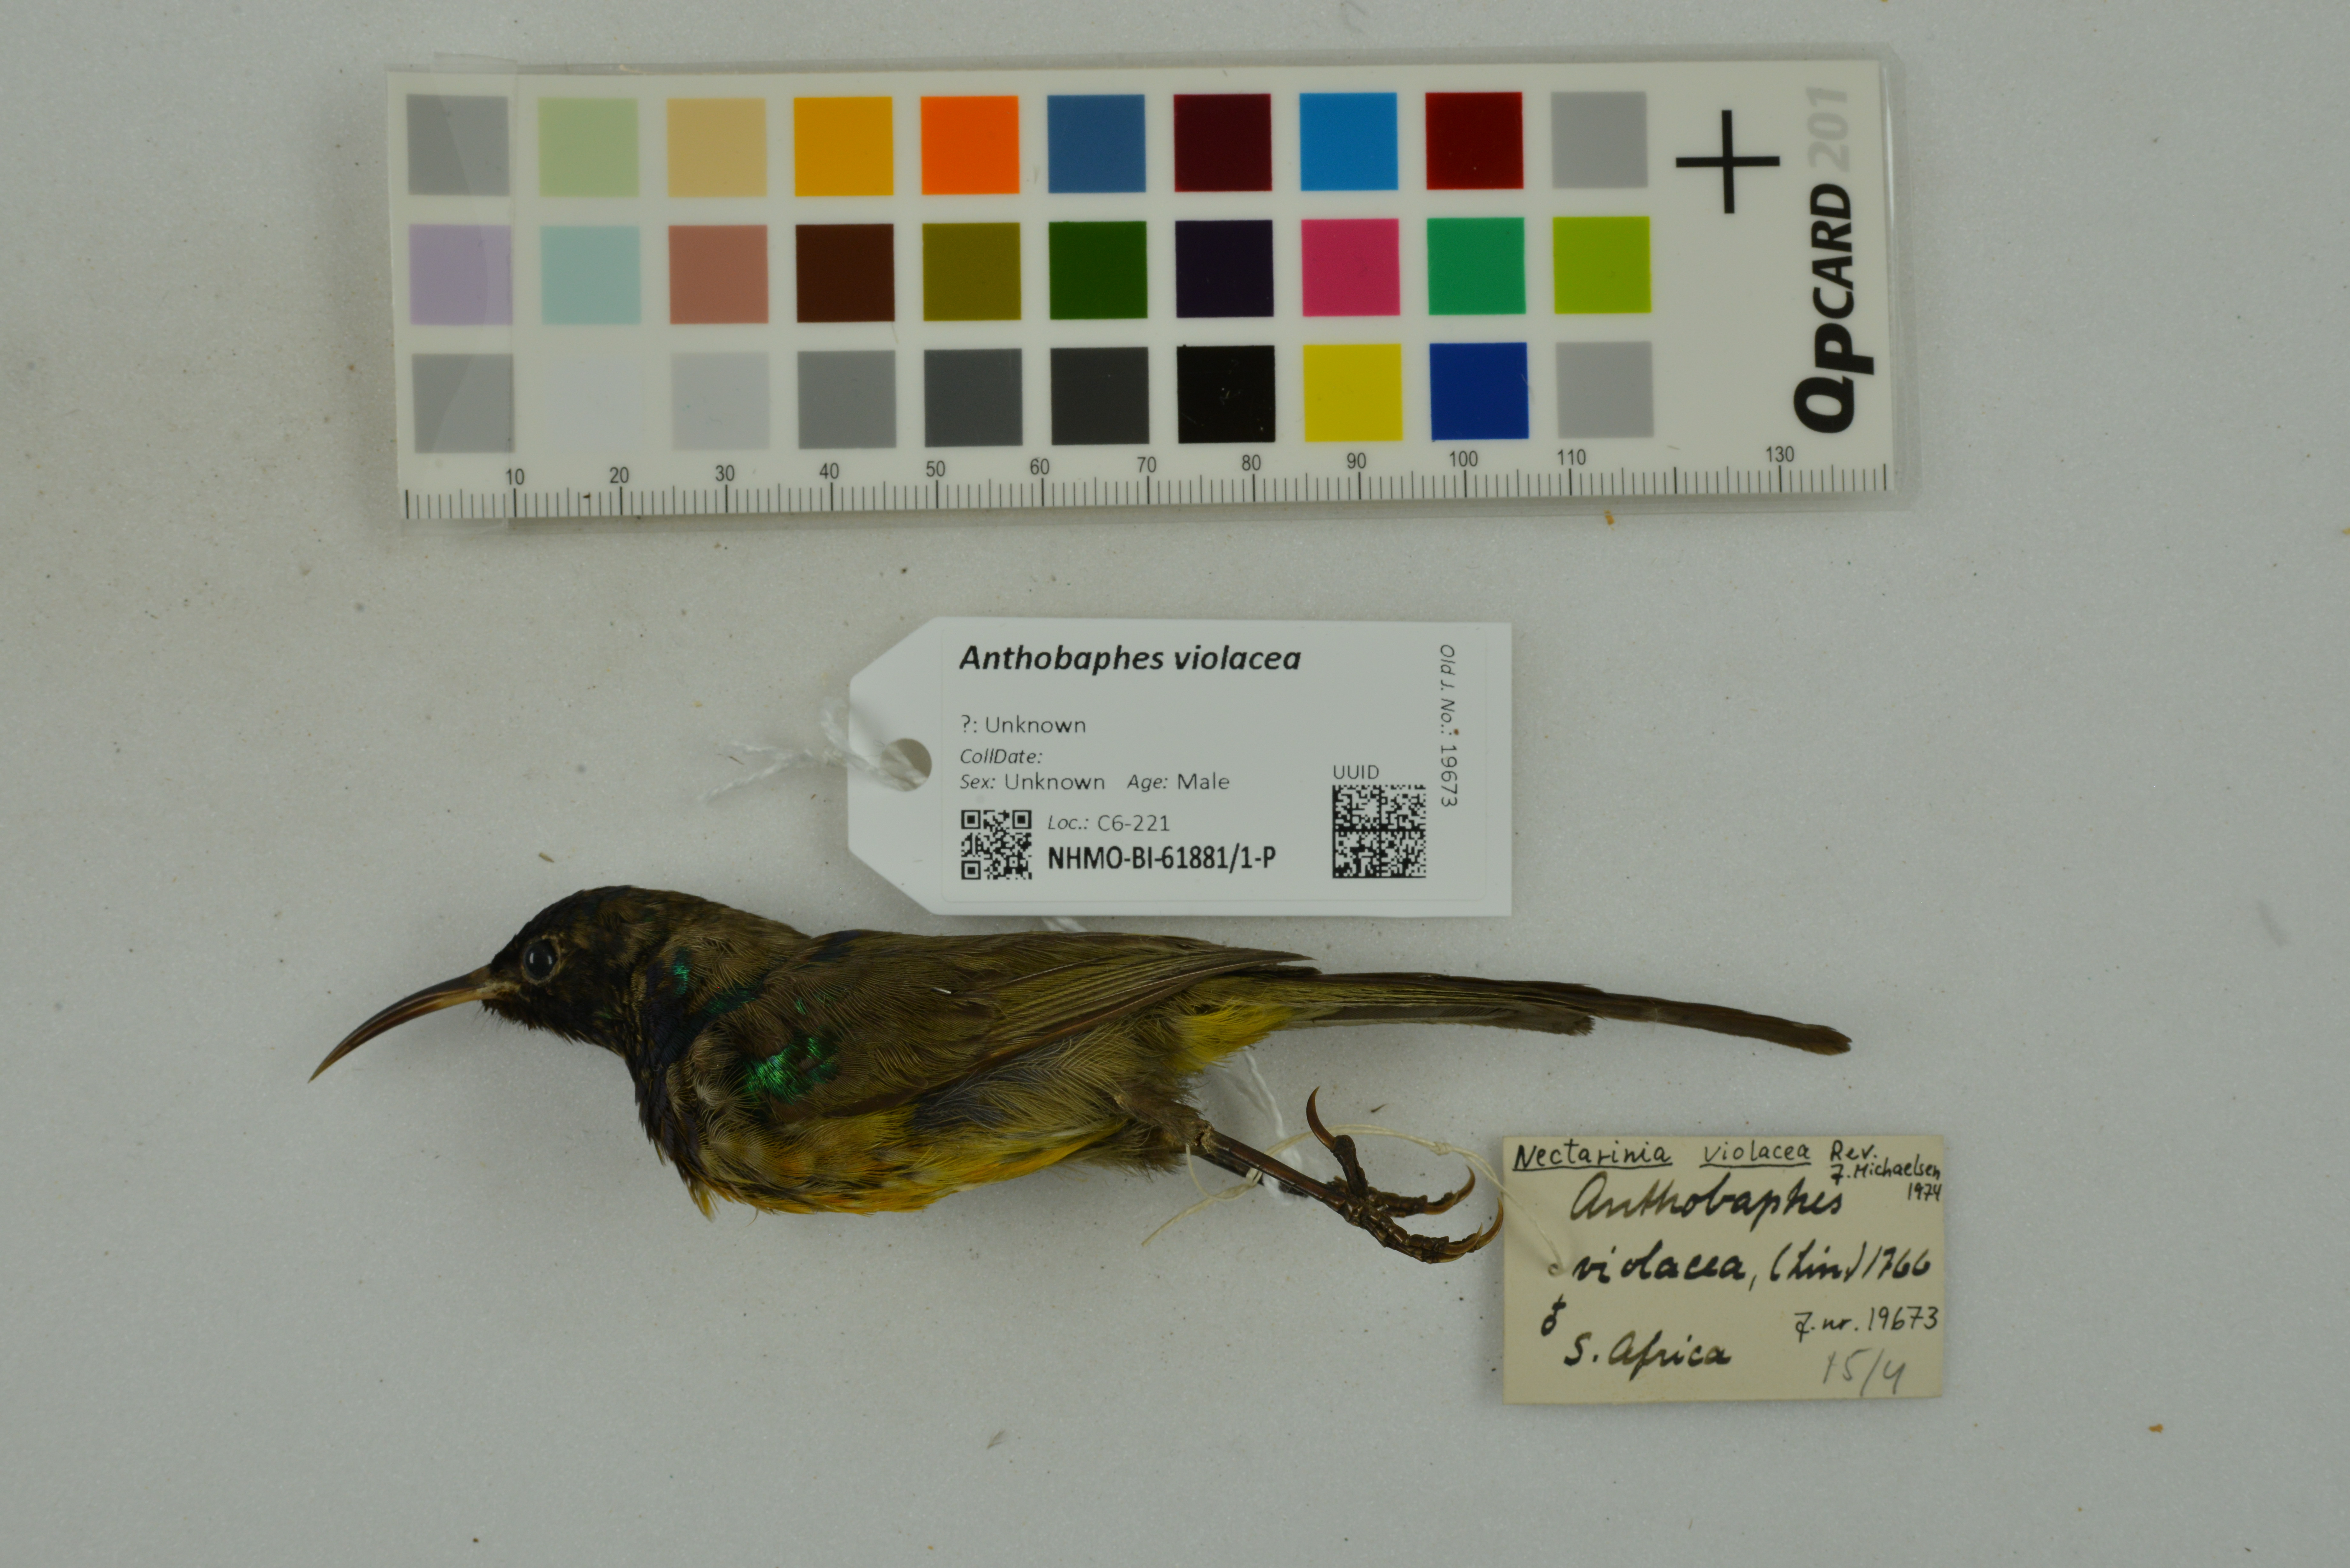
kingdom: Animalia
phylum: Chordata
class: Aves
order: Passeriformes
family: Nectariniidae
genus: Anthobaphes
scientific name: Anthobaphes violacea
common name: Orange-breasted sunbird
